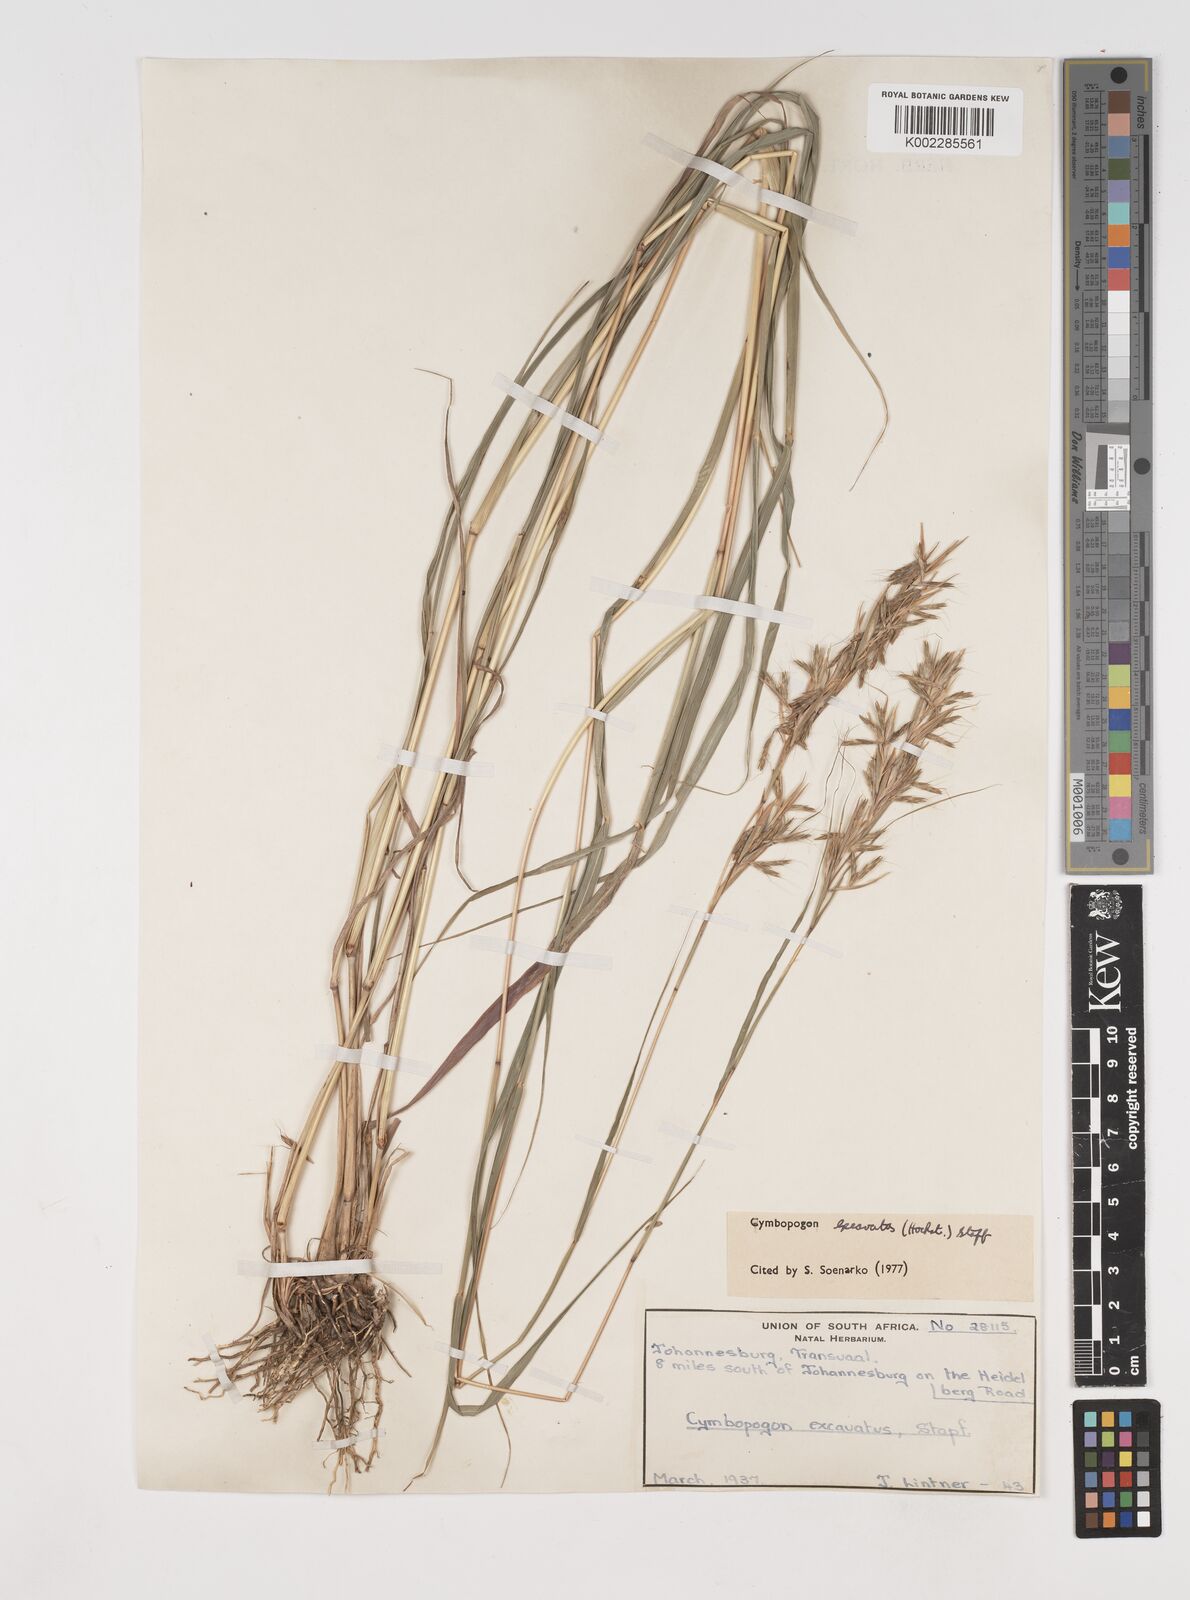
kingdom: Plantae
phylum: Tracheophyta
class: Liliopsida
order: Poales
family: Poaceae
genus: Cymbopogon
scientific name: Cymbopogon caesius
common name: Kachi grass
